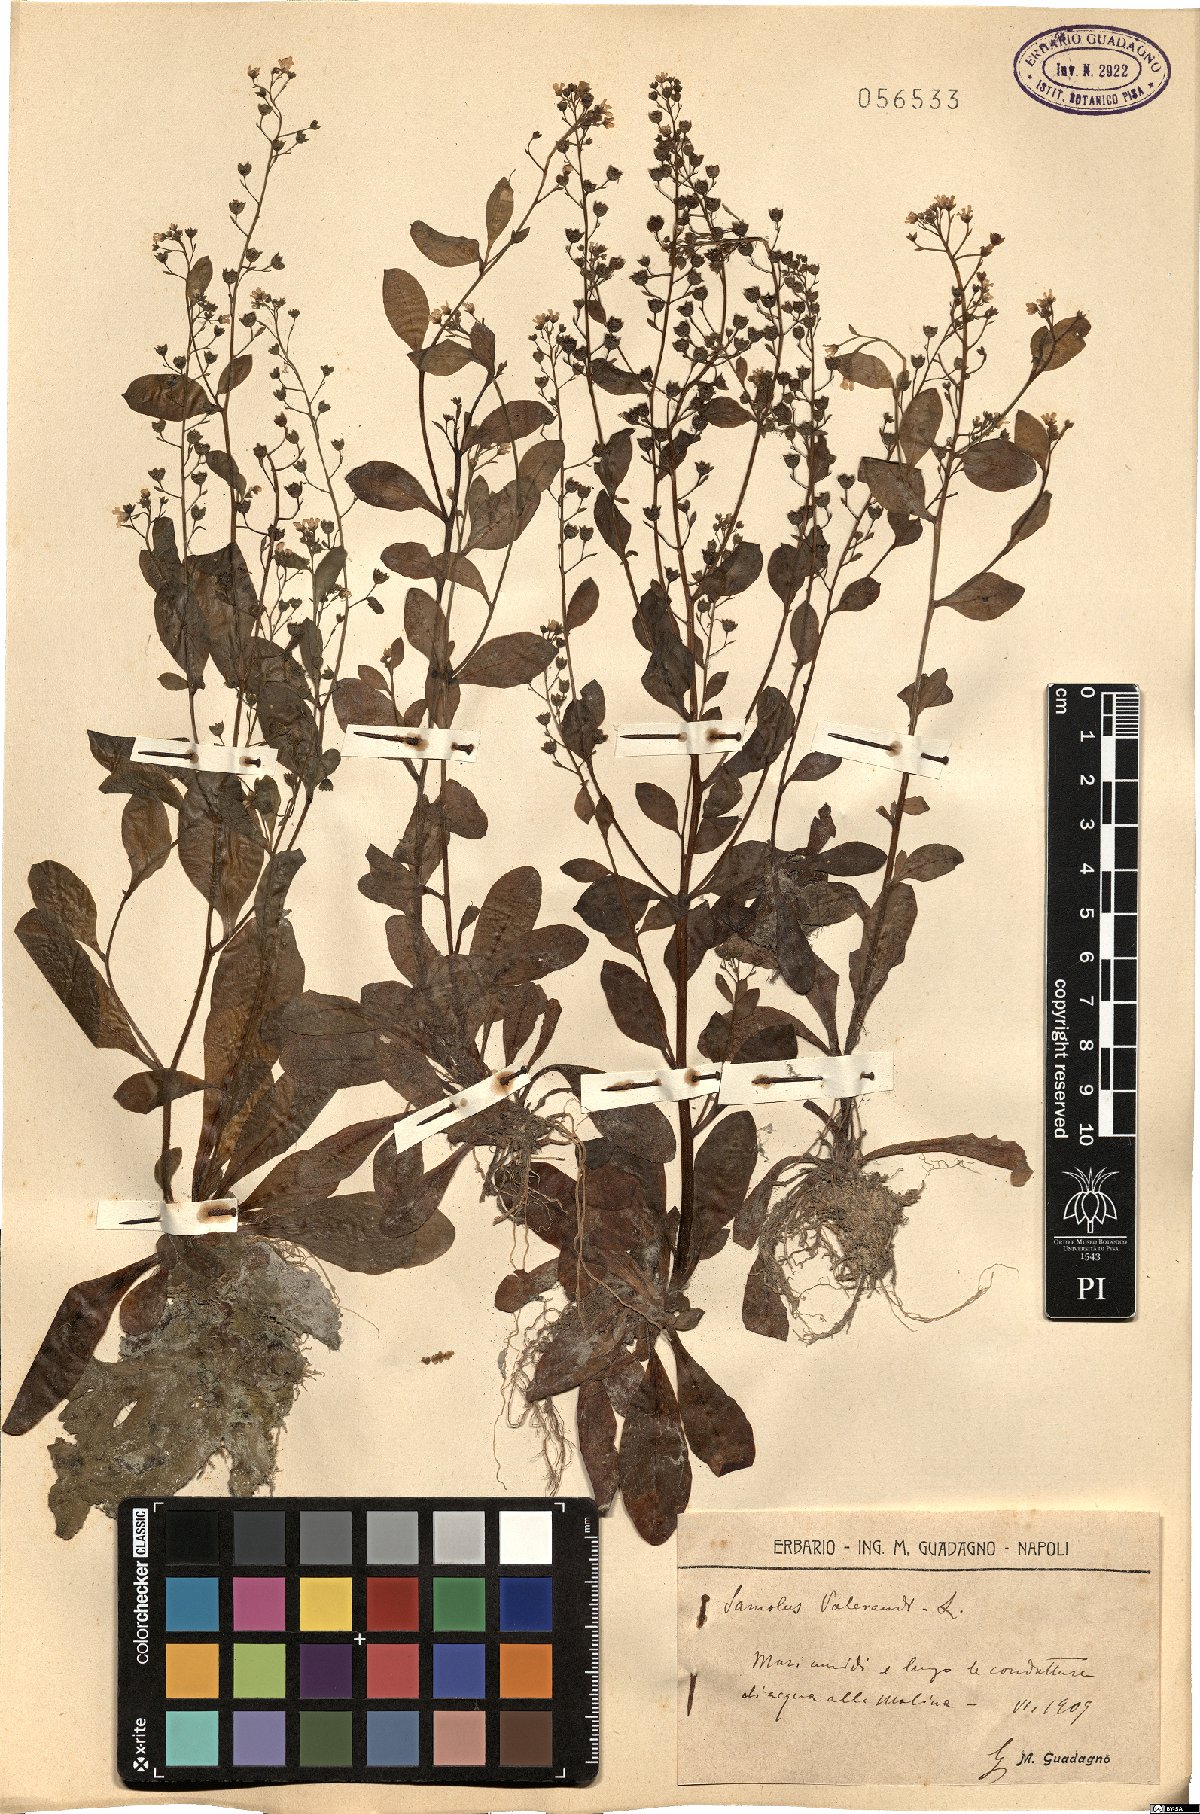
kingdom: Plantae
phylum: Tracheophyta
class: Magnoliopsida
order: Ericales
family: Primulaceae
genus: Samolus
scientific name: Samolus valerandi
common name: Brookweed
